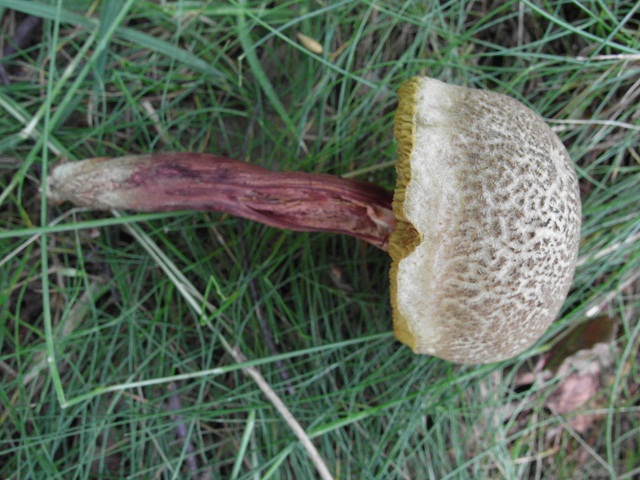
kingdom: Fungi
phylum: Basidiomycota
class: Agaricomycetes
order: Boletales
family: Boletaceae
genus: Xerocomellus
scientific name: Xerocomellus chrysenteron
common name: rødsprukken rørhat
